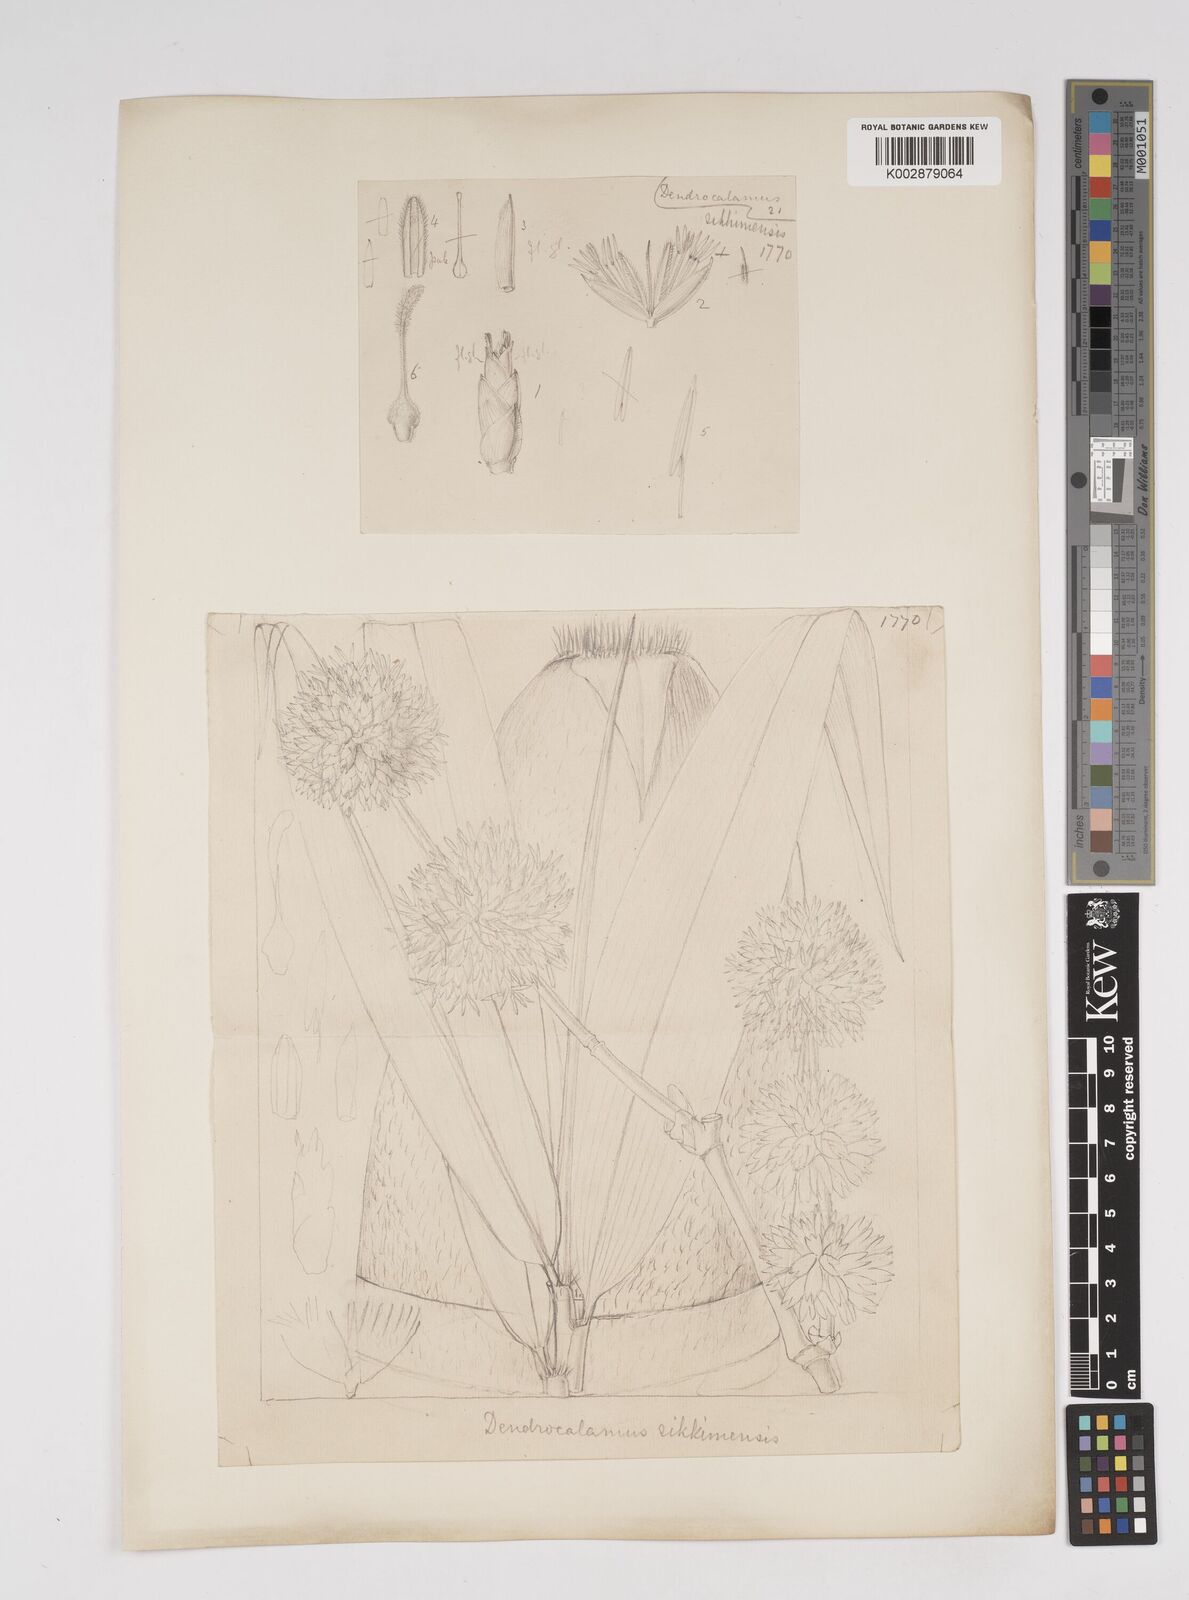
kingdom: Plantae
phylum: Tracheophyta
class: Liliopsida
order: Poales
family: Poaceae
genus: Dendrocalamus
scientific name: Dendrocalamus sikkimensis
